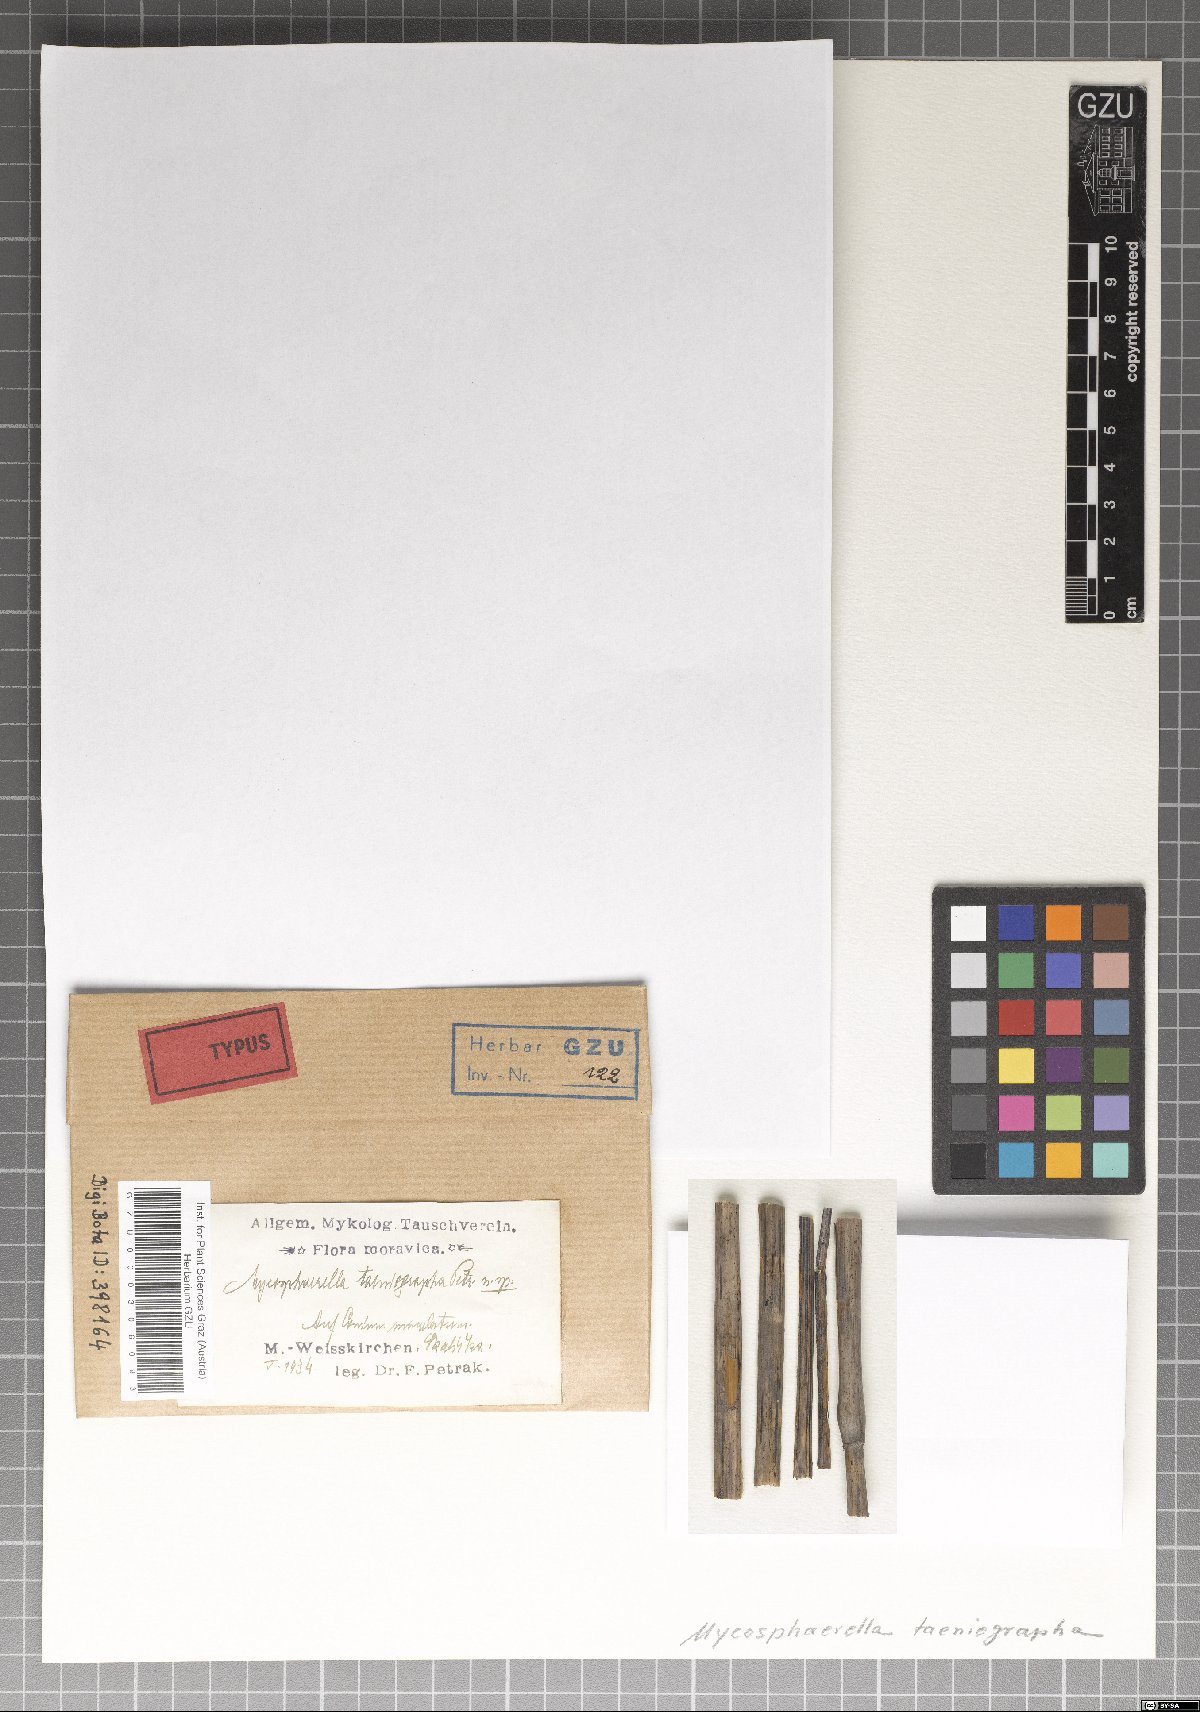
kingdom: Fungi
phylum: Ascomycota
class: Dothideomycetes
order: Mycosphaerellales
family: Mycosphaerellaceae
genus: Mycosphaerella
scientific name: Mycosphaerella taeniographa
